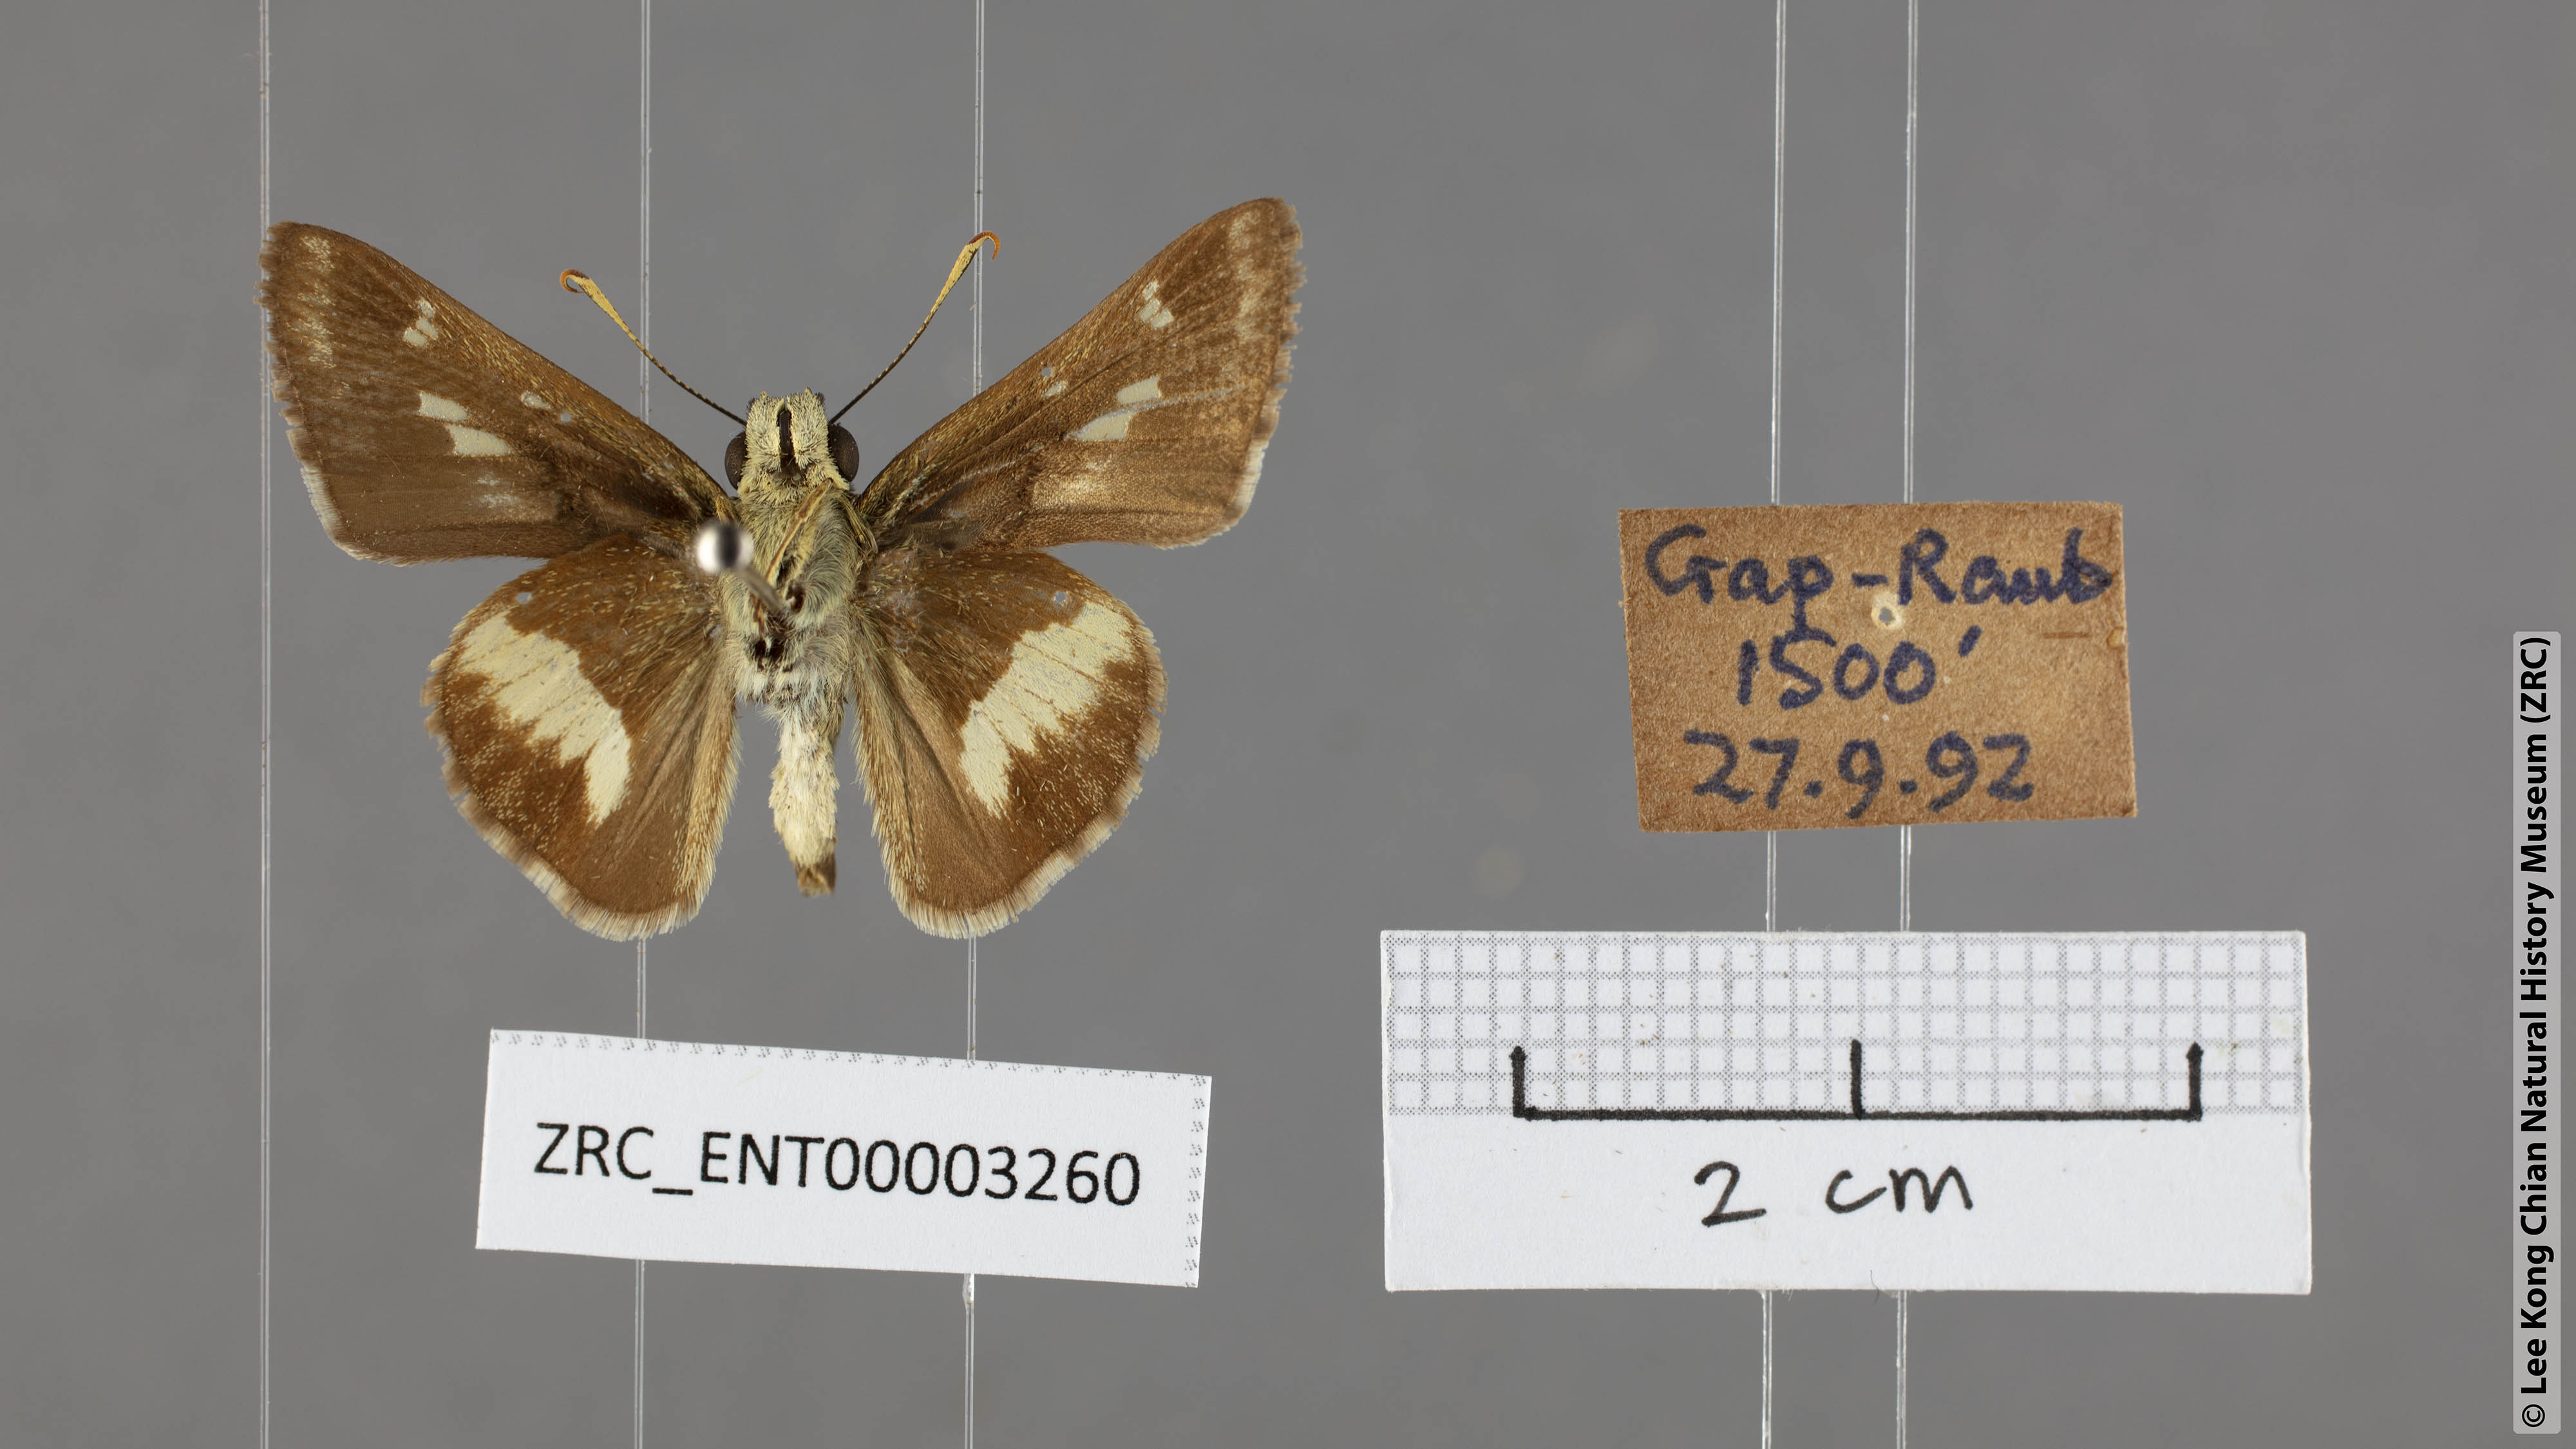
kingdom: Animalia
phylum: Arthropoda
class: Insecta
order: Lepidoptera
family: Hesperiidae
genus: Halpe
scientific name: Halpe zema
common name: Dark banded ace
